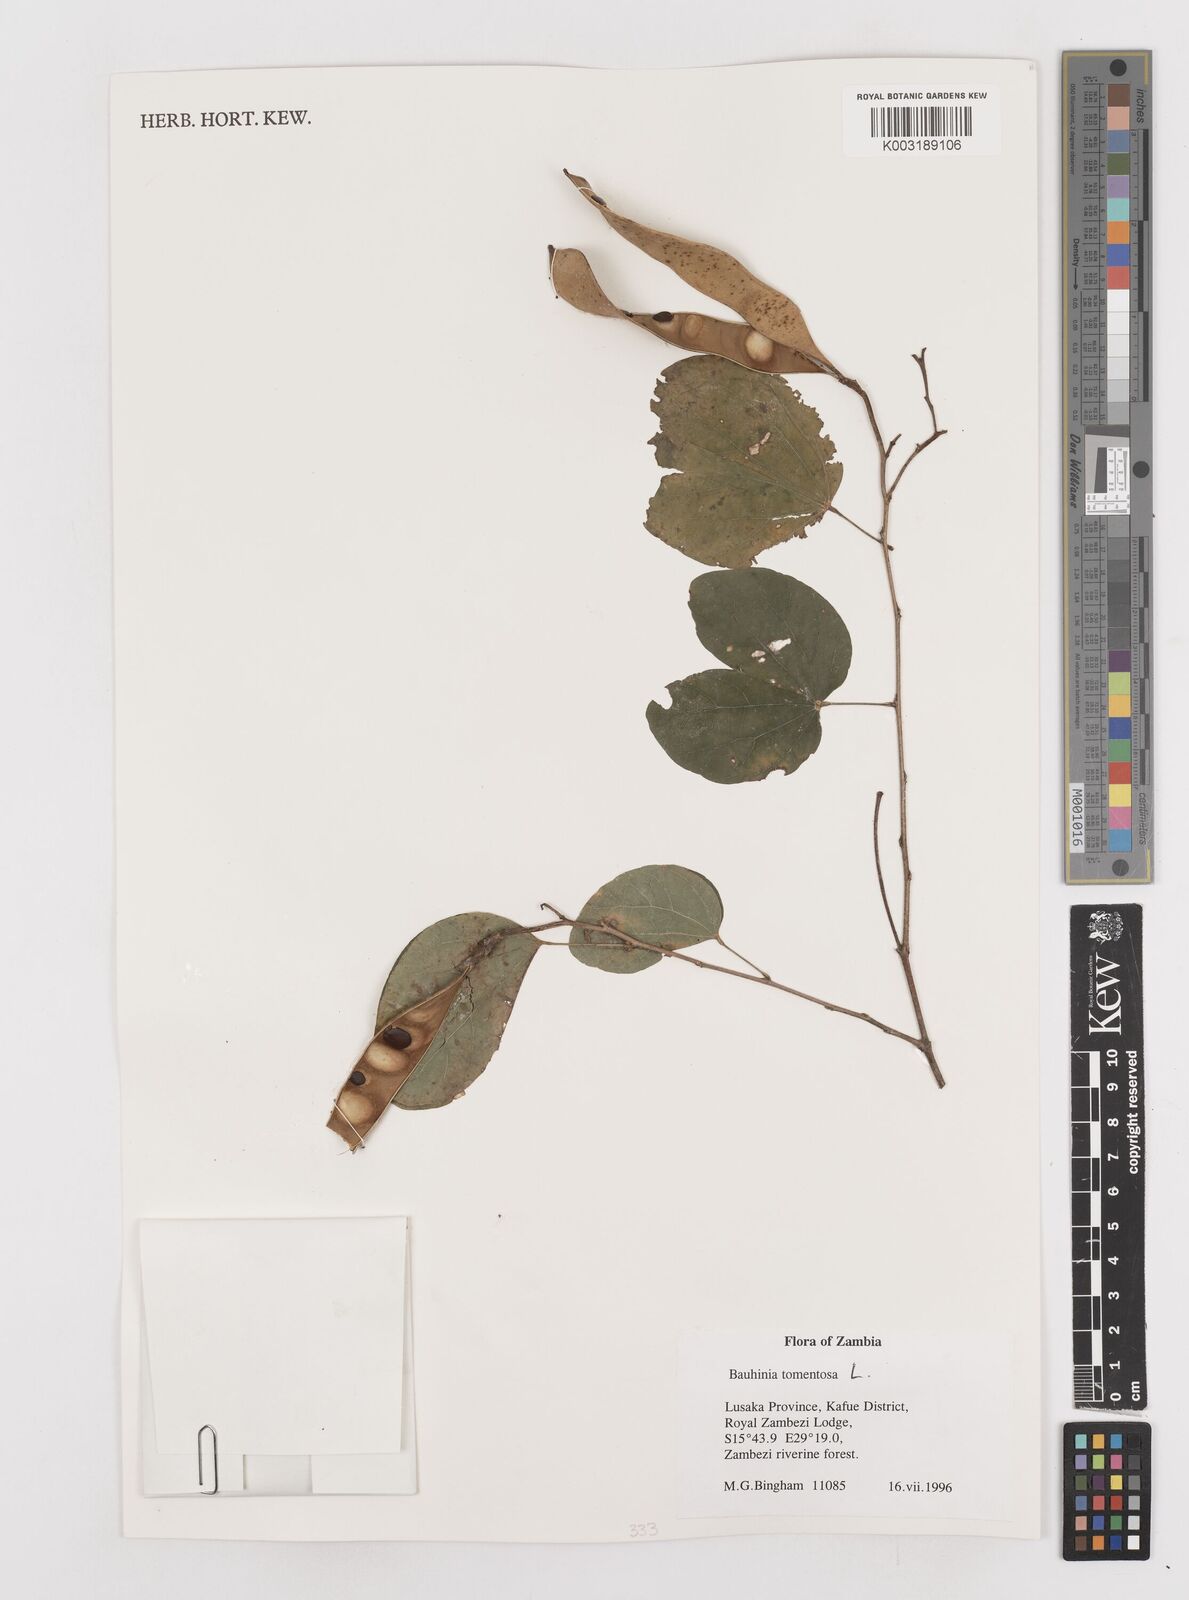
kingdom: Plantae
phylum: Tracheophyta
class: Magnoliopsida
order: Fabales
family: Fabaceae
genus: Bauhinia
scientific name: Bauhinia tomentosa
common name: Bell bauhinia
